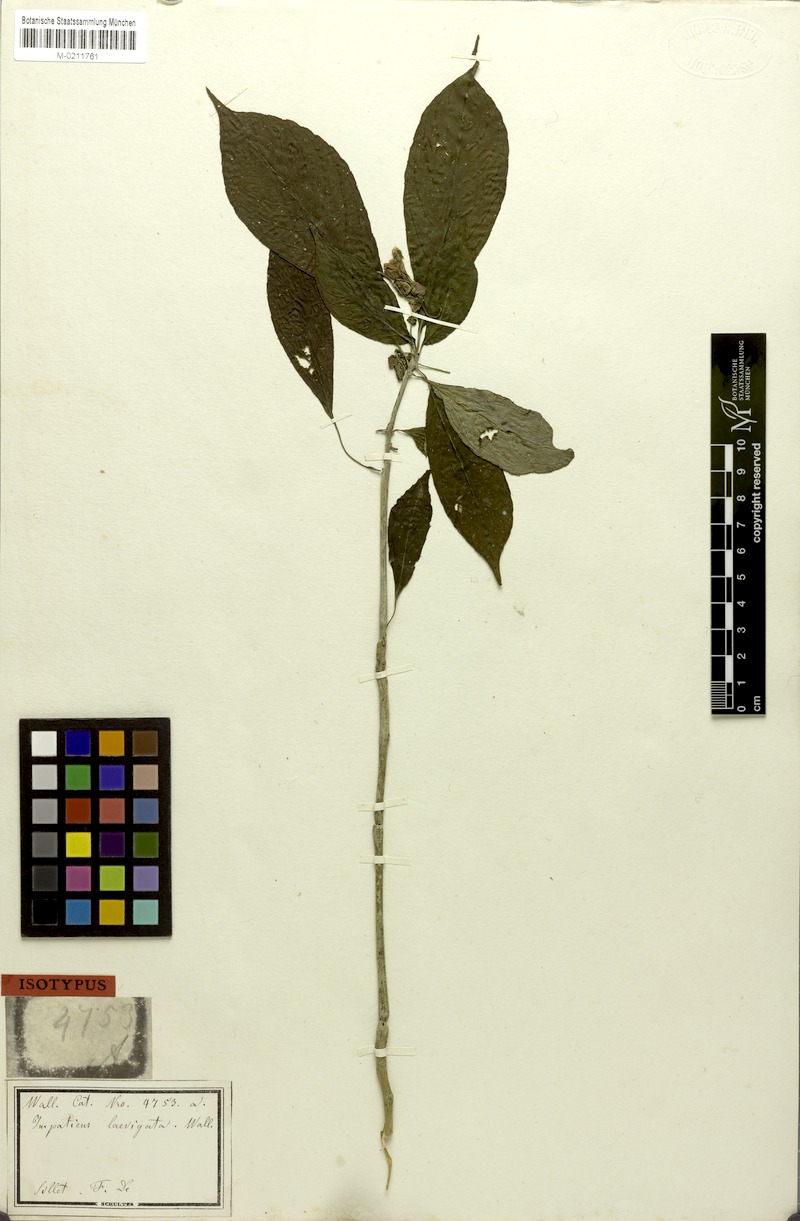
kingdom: Plantae
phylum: Tracheophyta
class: Magnoliopsida
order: Ericales
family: Balsaminaceae
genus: Impatiens
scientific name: Impatiens laevigata
